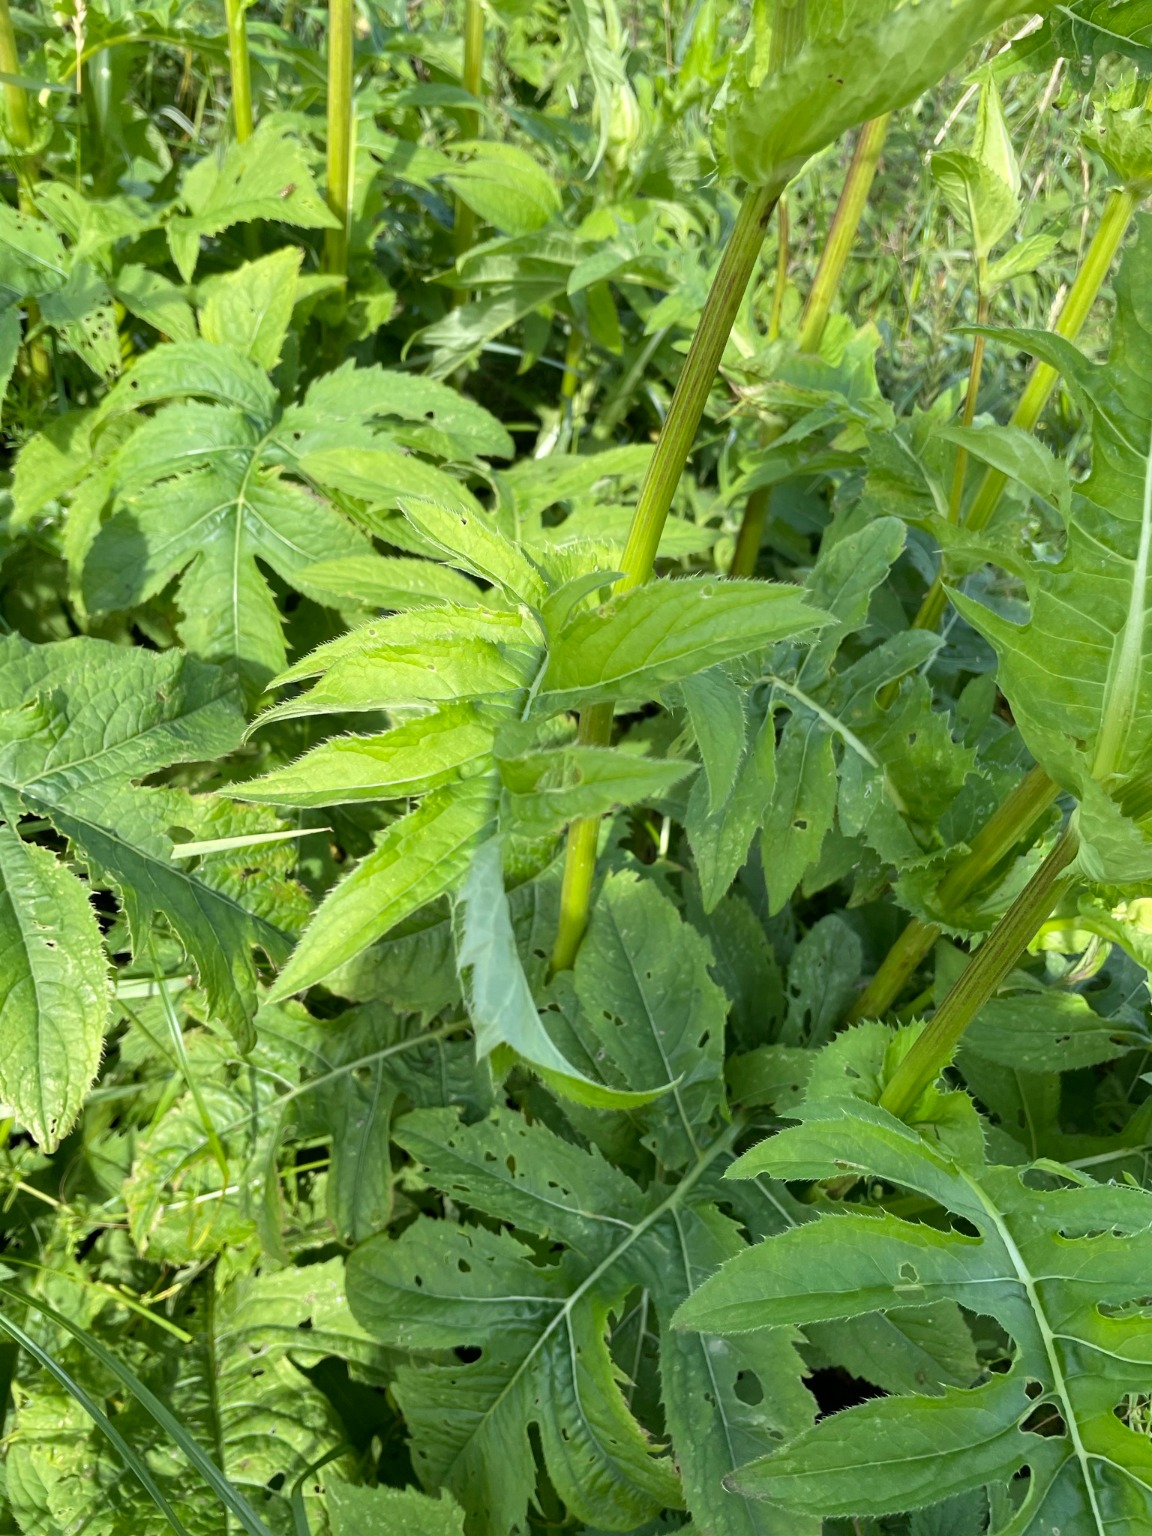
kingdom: Plantae
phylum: Tracheophyta
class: Magnoliopsida
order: Asterales
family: Asteraceae
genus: Cirsium
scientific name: Cirsium oleraceum
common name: Kål-tidsel
